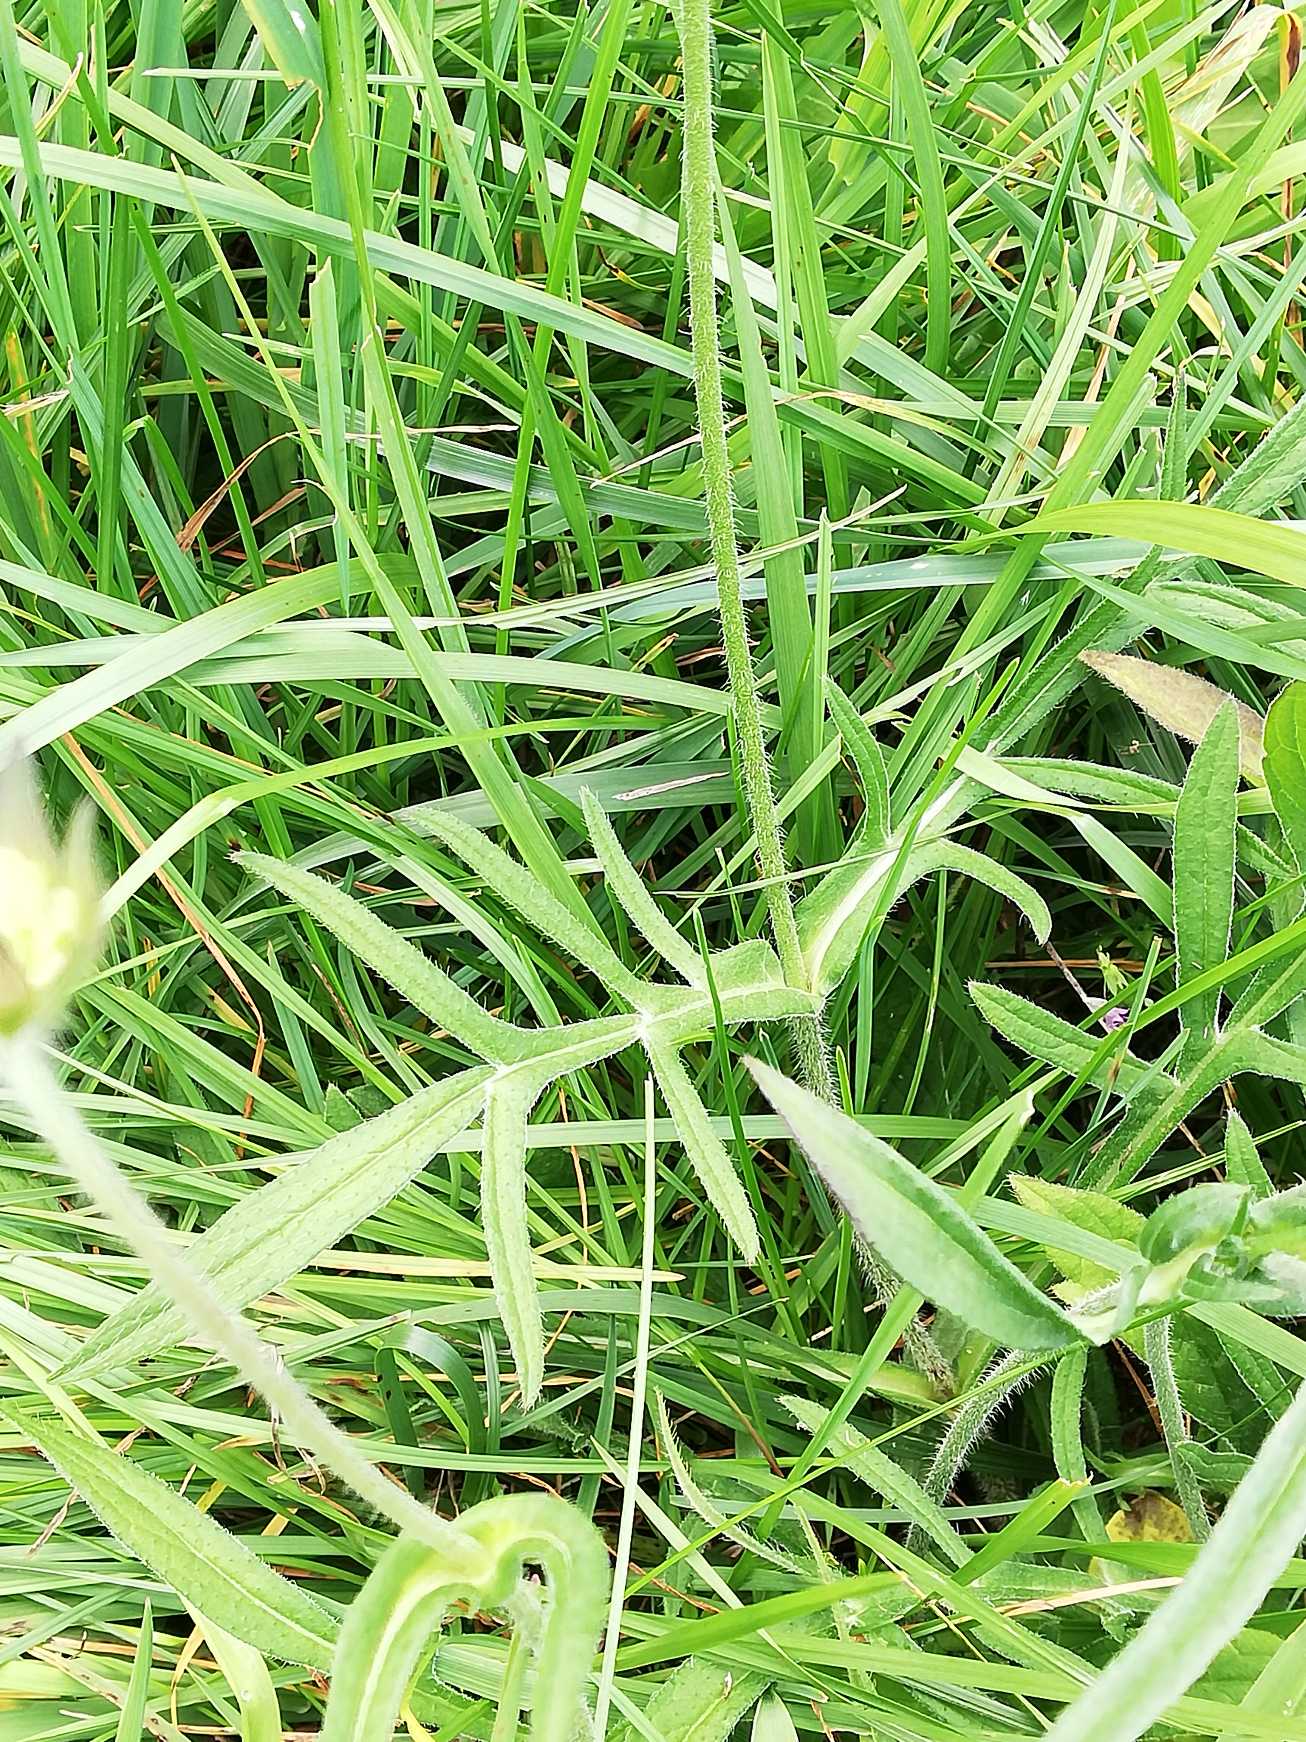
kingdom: Plantae
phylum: Tracheophyta
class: Magnoliopsida
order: Dipsacales
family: Caprifoliaceae
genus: Knautia
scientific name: Knautia arvensis
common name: Blåhat
